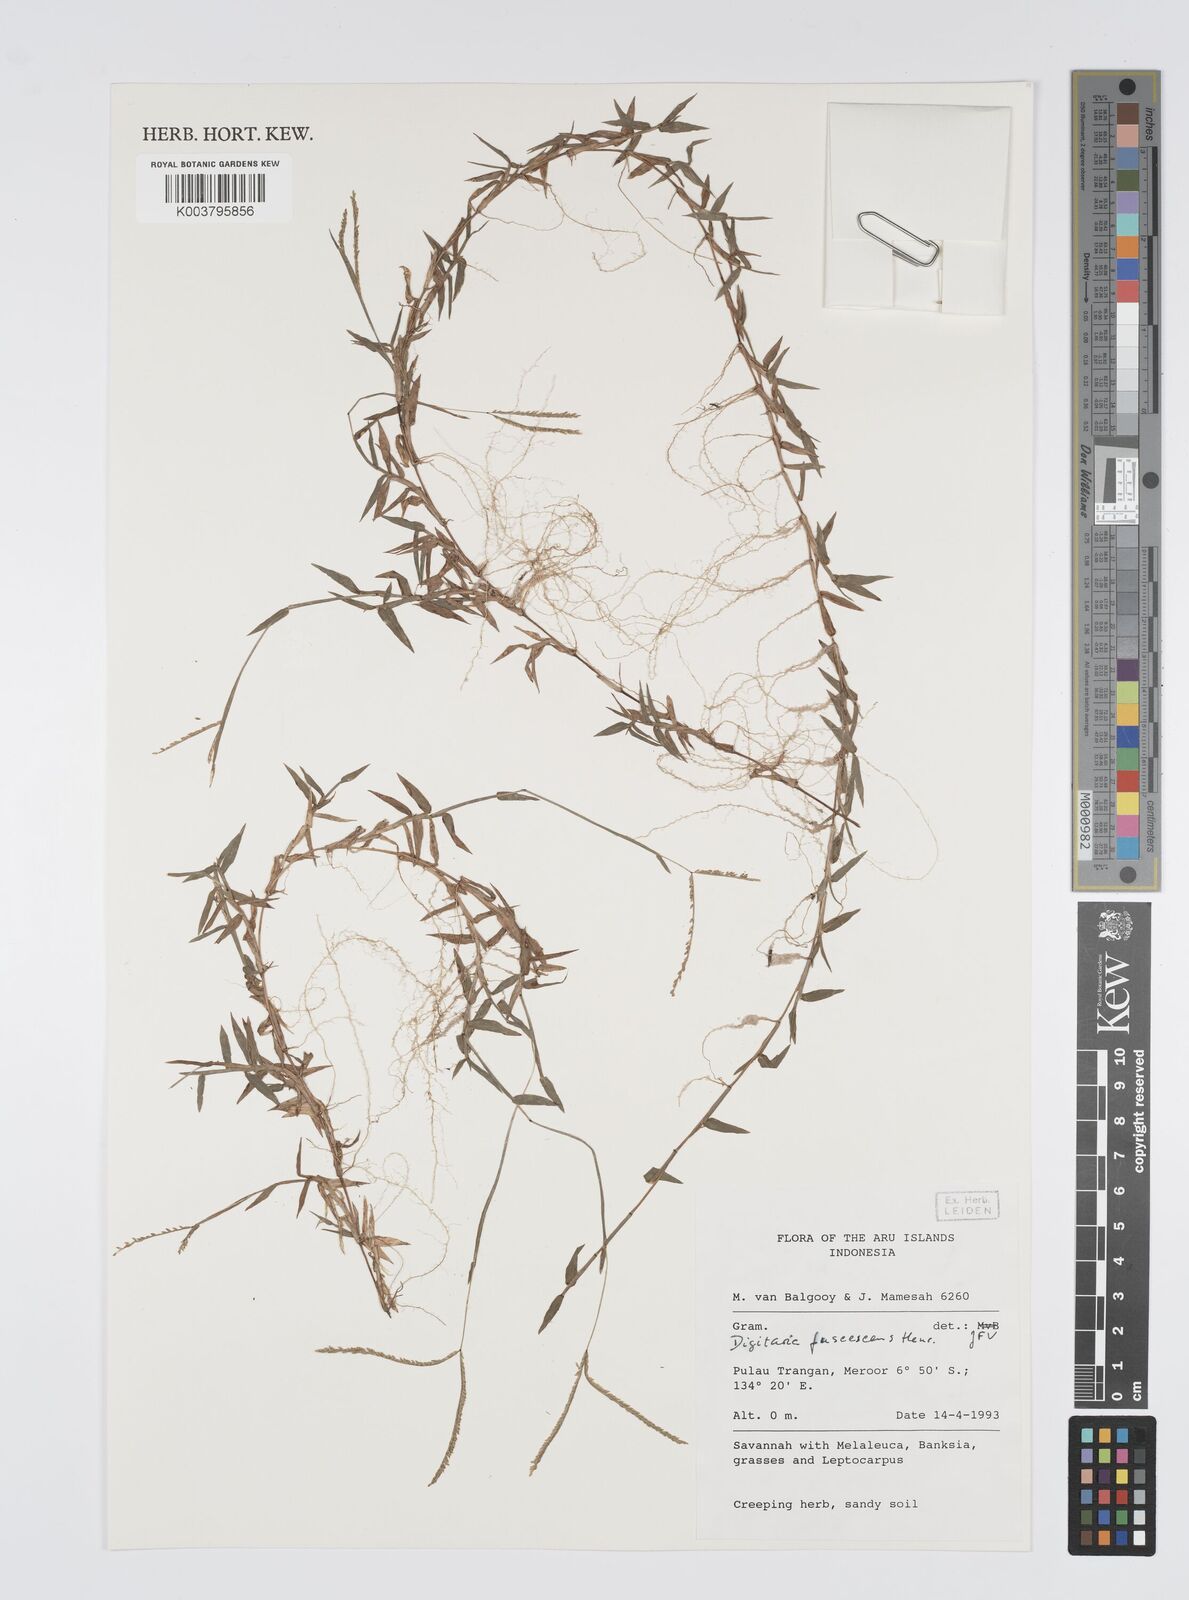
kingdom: Plantae
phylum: Tracheophyta
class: Liliopsida
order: Poales
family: Poaceae
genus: Digitaria
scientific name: Digitaria fuscescens
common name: Yellow crabgrass
